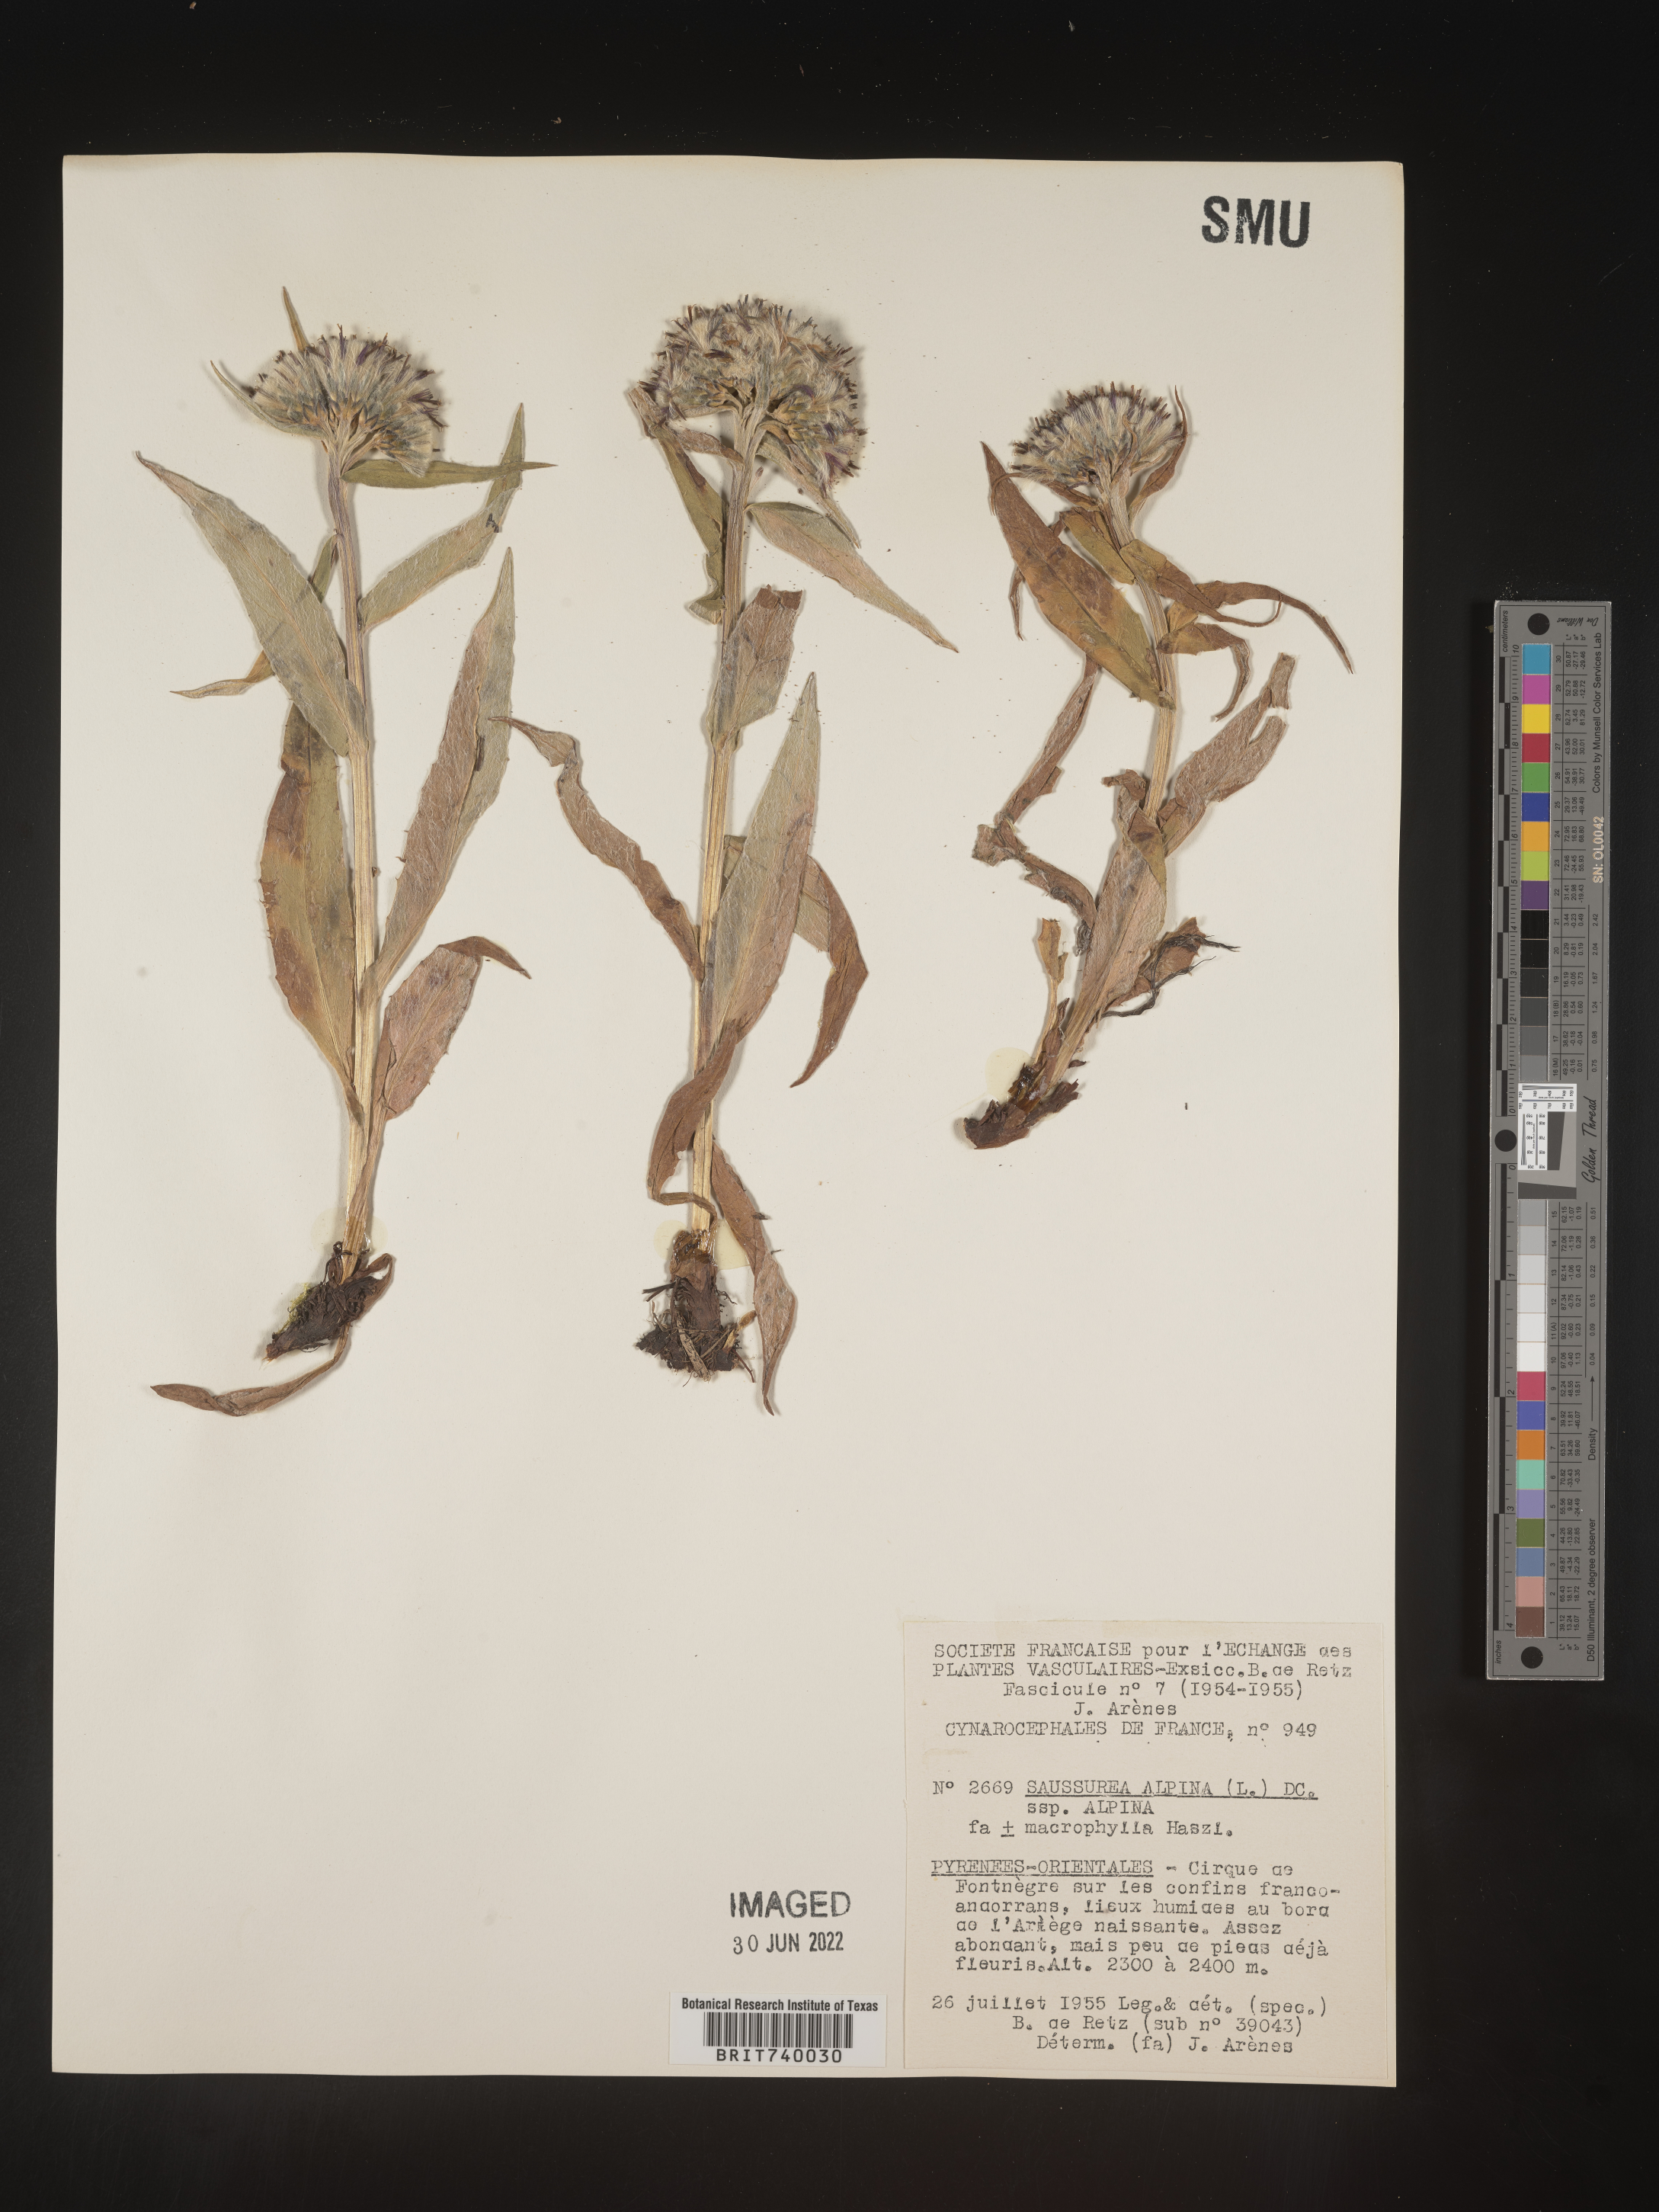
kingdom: Plantae
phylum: Tracheophyta
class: Magnoliopsida
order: Asterales
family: Asteraceae
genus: Saussurea
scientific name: Saussurea
